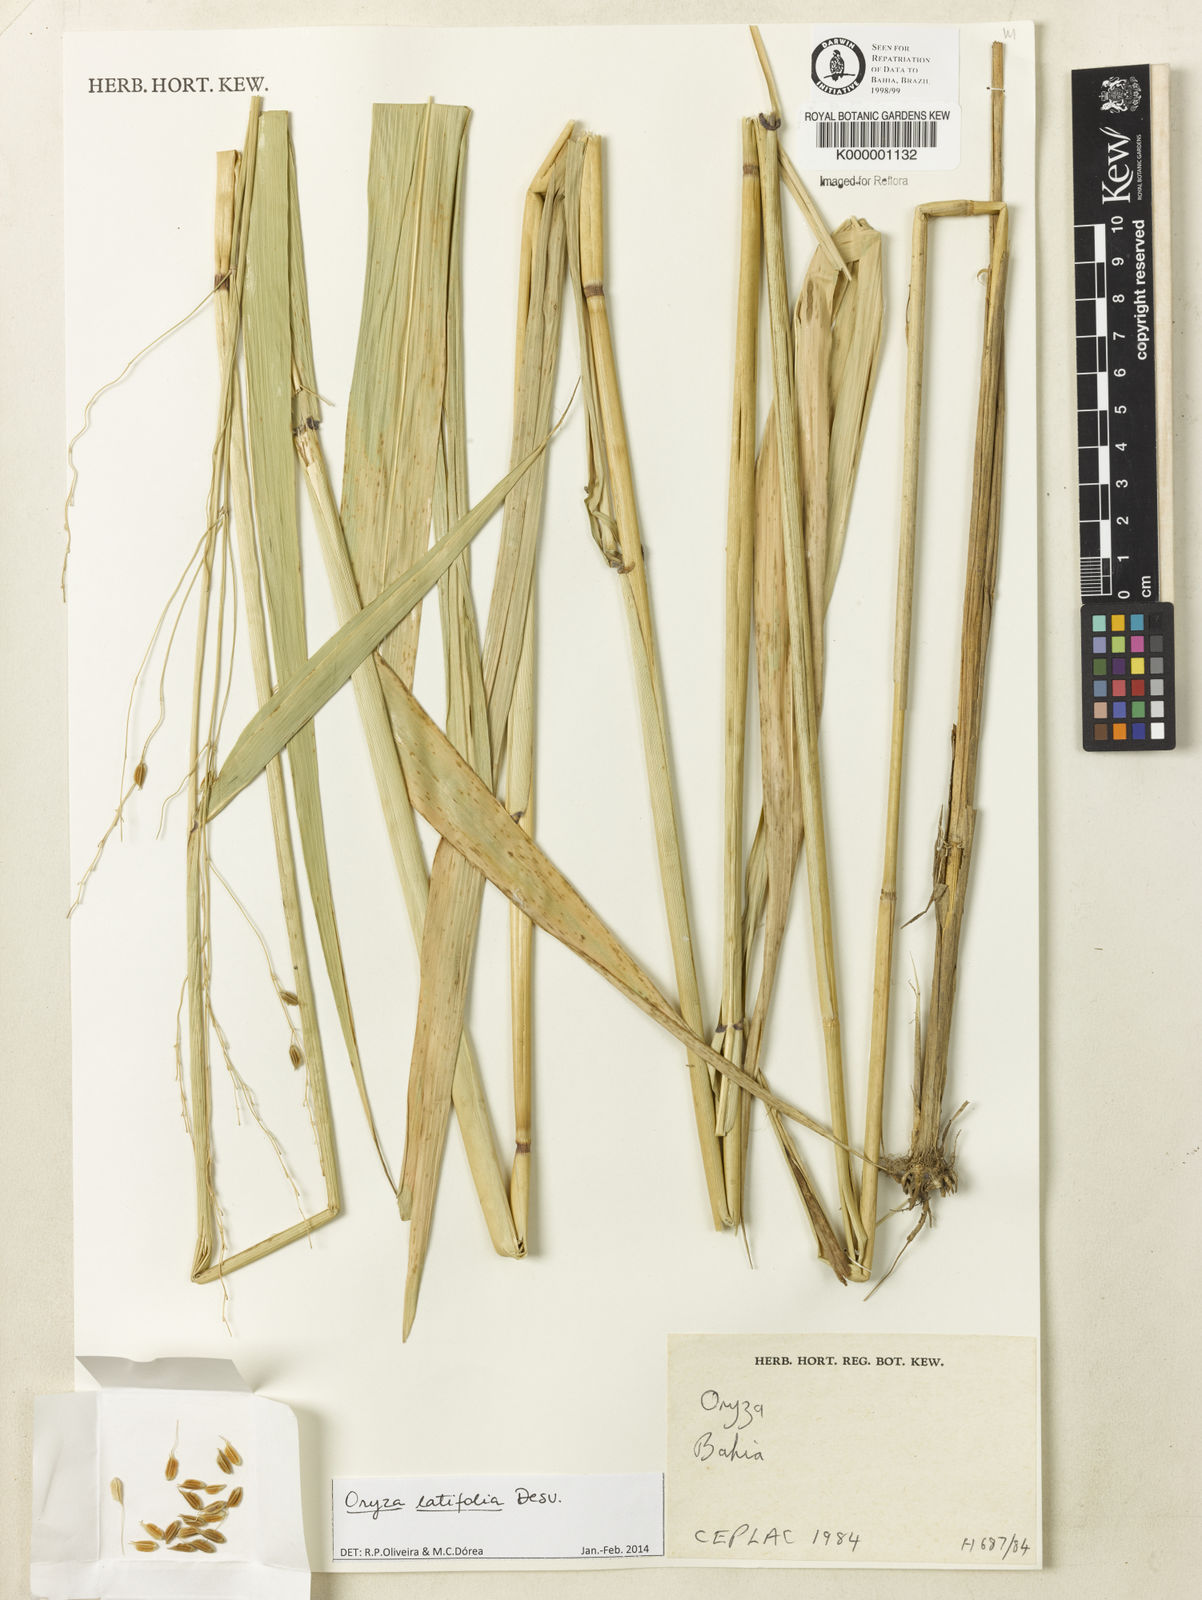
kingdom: Plantae
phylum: Tracheophyta
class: Liliopsida
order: Poales
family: Poaceae
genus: Oryza
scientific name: Oryza
